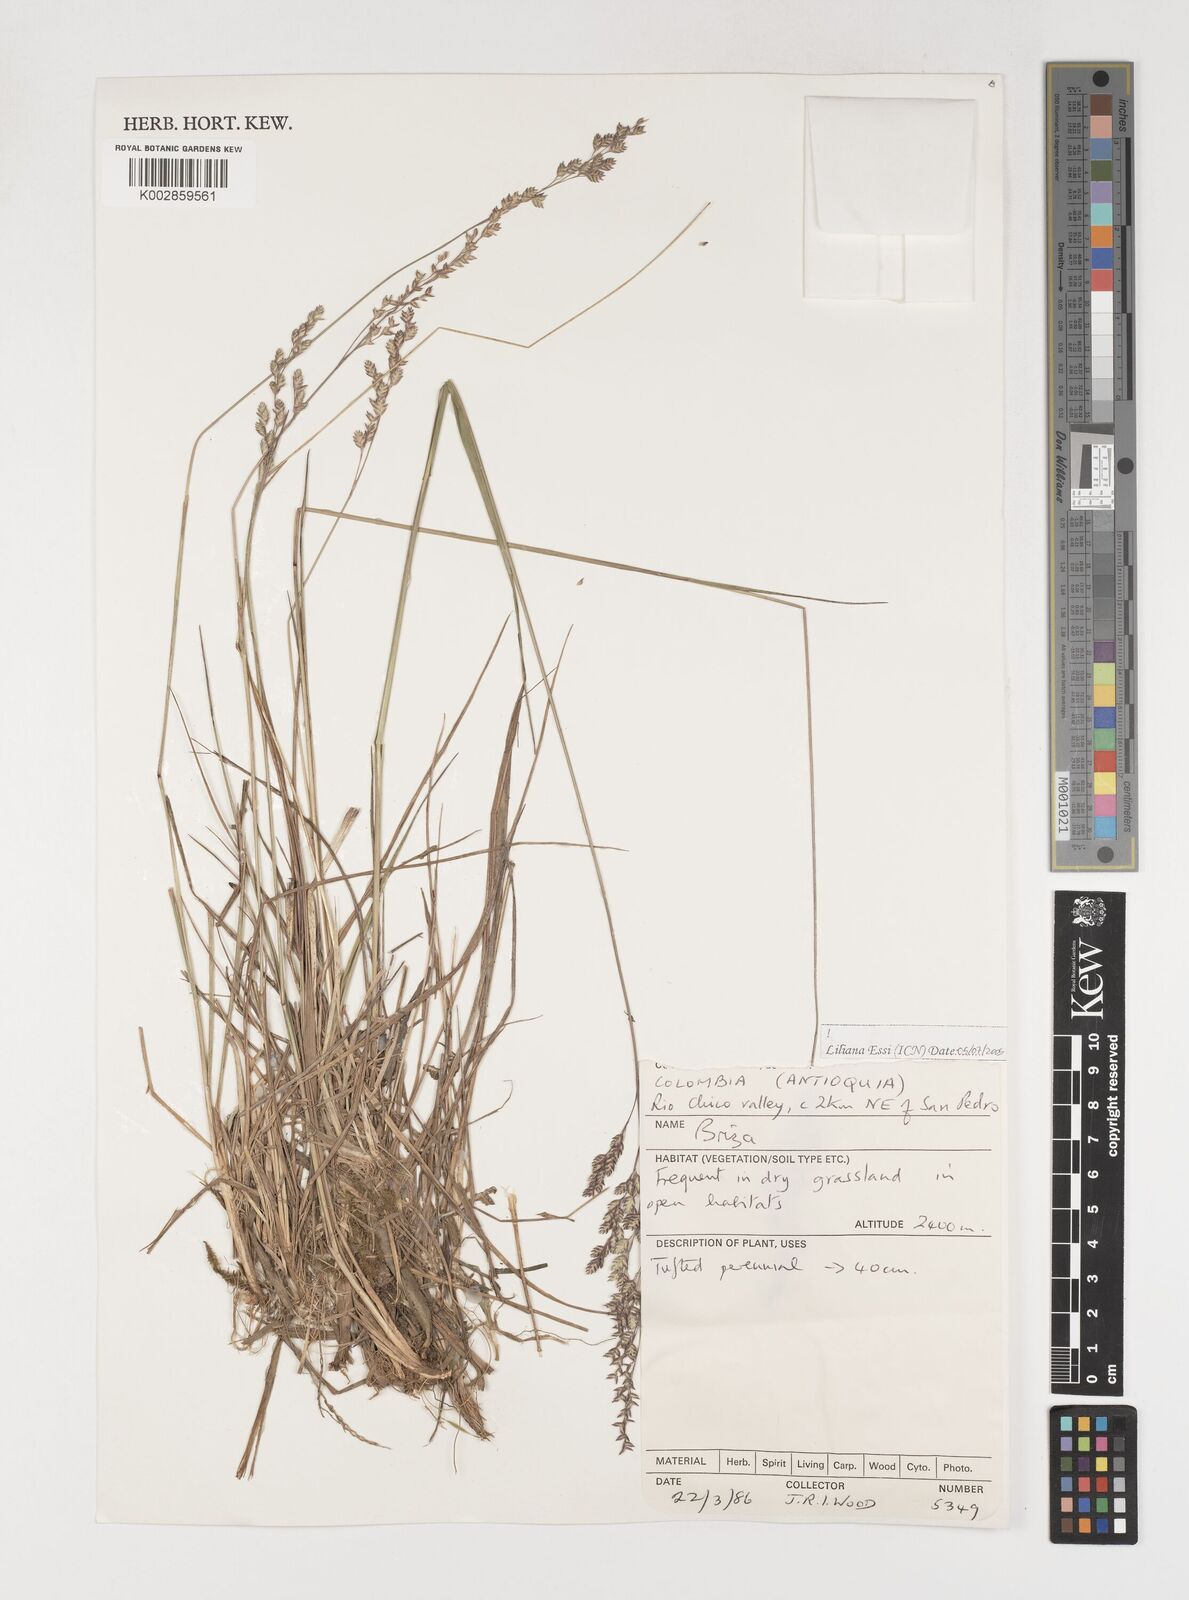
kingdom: Plantae
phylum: Tracheophyta
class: Liliopsida
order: Poales
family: Poaceae
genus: Poidium
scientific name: Poidium monandrum
